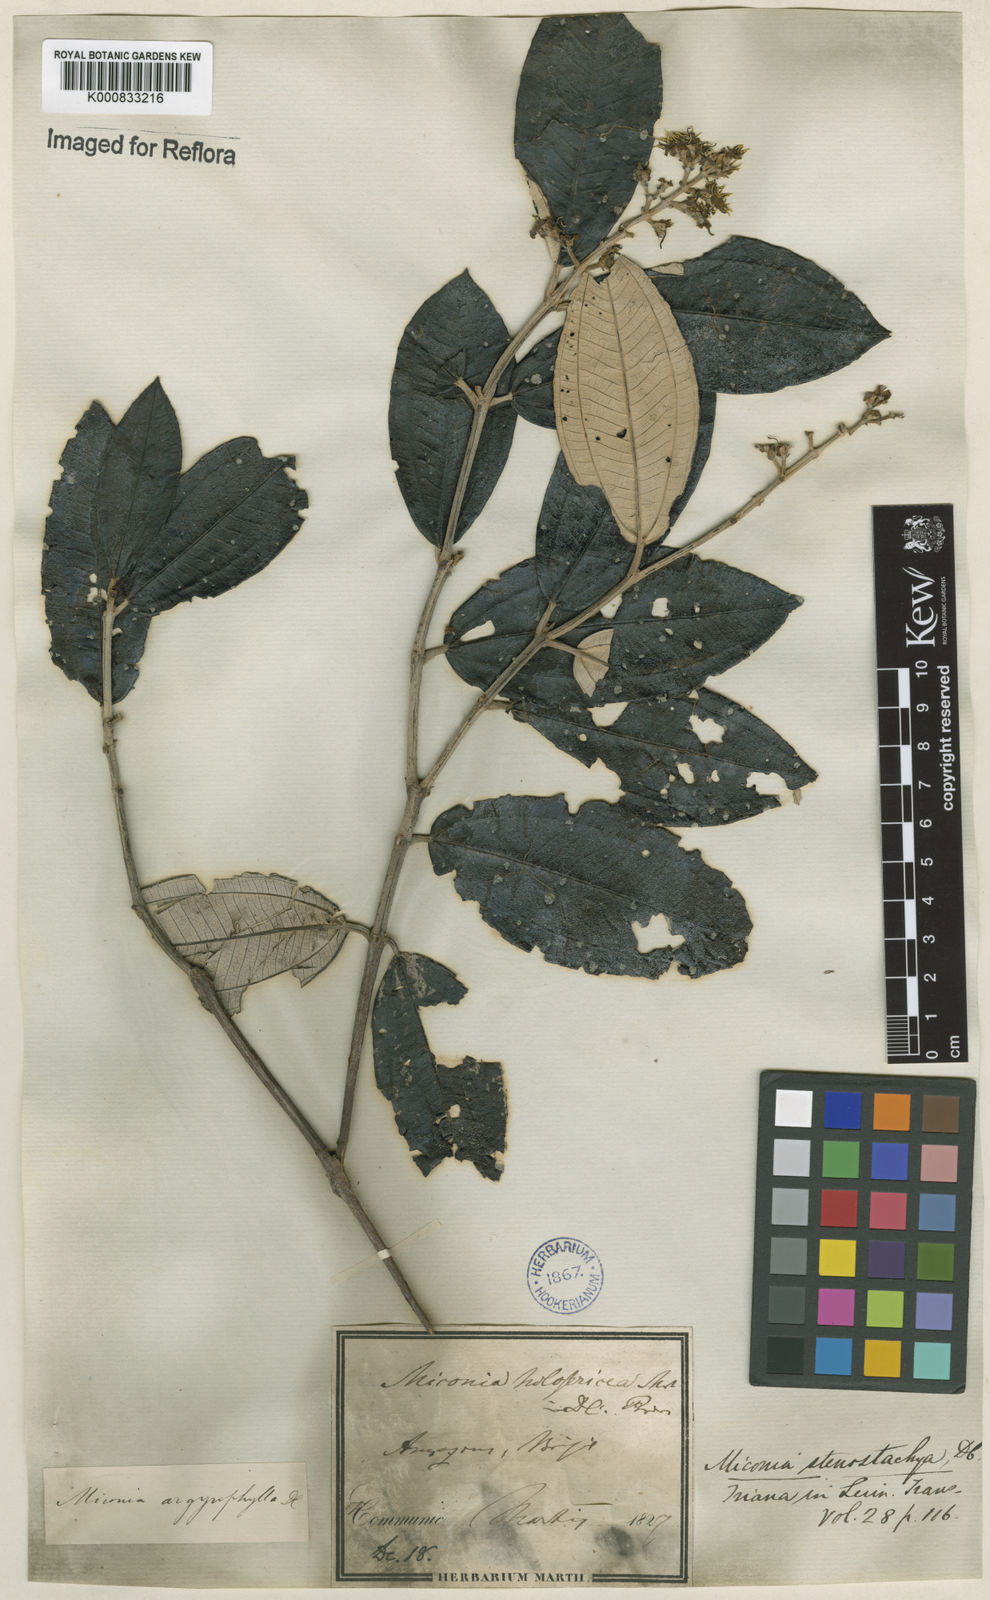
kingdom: Plantae
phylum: Tracheophyta
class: Magnoliopsida
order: Myrtales
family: Melastomataceae
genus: Miconia
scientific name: Miconia stenostachya
